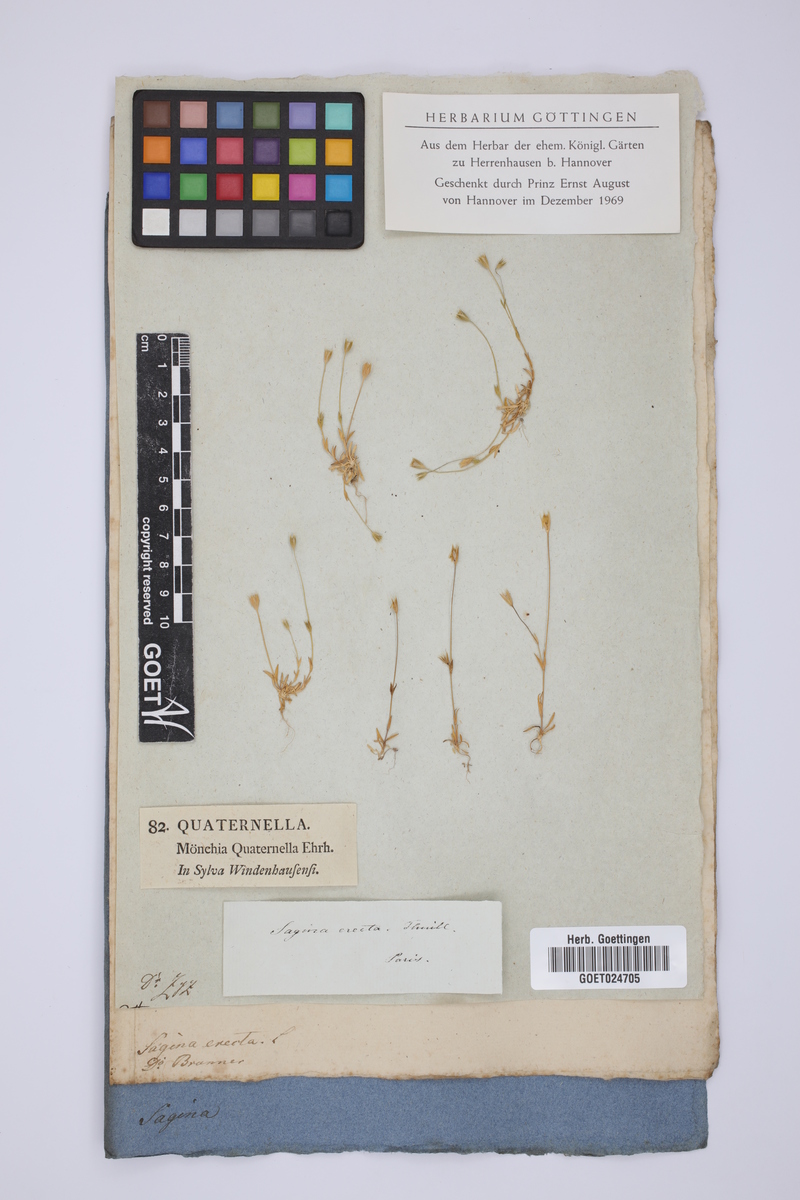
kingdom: Plantae
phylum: Tracheophyta
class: Magnoliopsida
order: Caryophyllales
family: Caryophyllaceae
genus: Moenchia
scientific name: Moenchia erecta
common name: Upright chickweed
